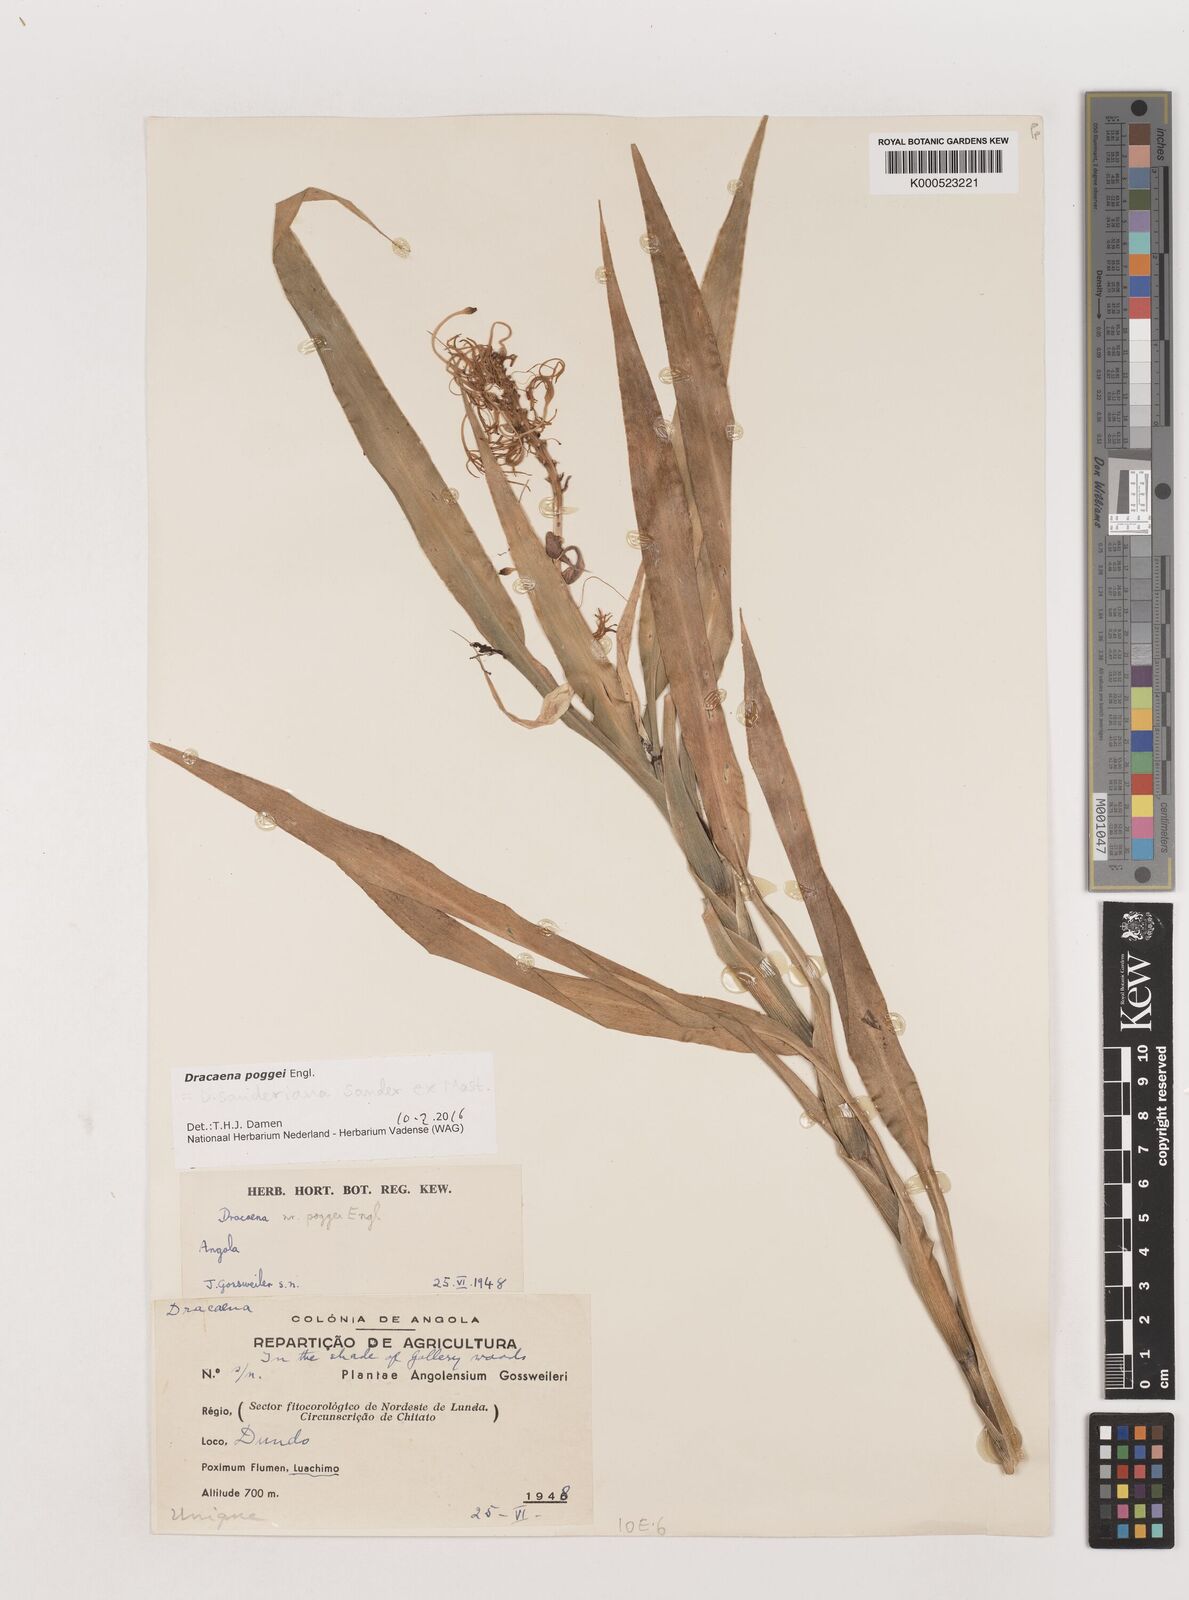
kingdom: Plantae
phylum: Tracheophyta
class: Liliopsida
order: Asparagales
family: Asparagaceae
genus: Dracaena
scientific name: Dracaena sanderiana
